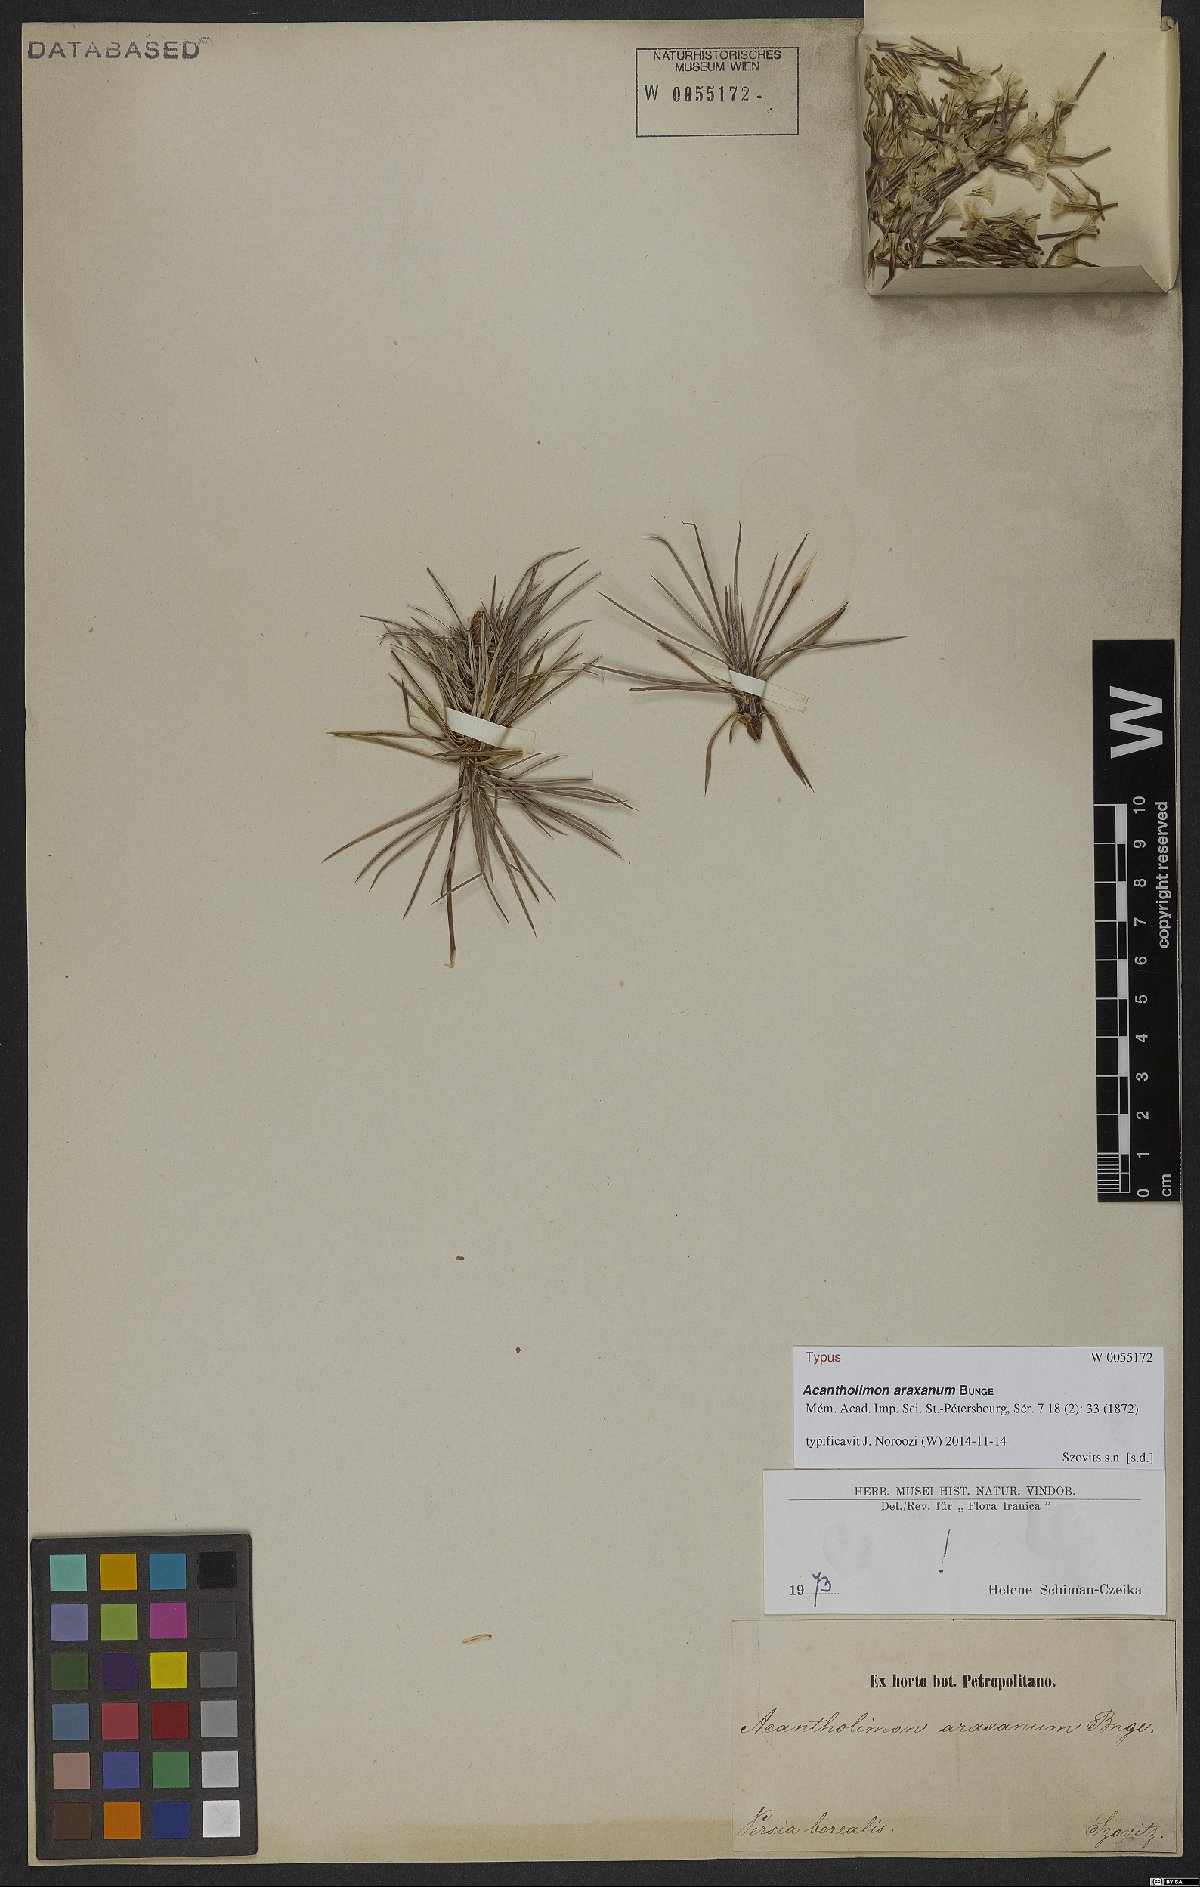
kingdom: Plantae
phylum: Tracheophyta
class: Magnoliopsida
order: Caryophyllales
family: Plumbaginaceae
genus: Acantholimon
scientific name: Acantholimon araxanum
